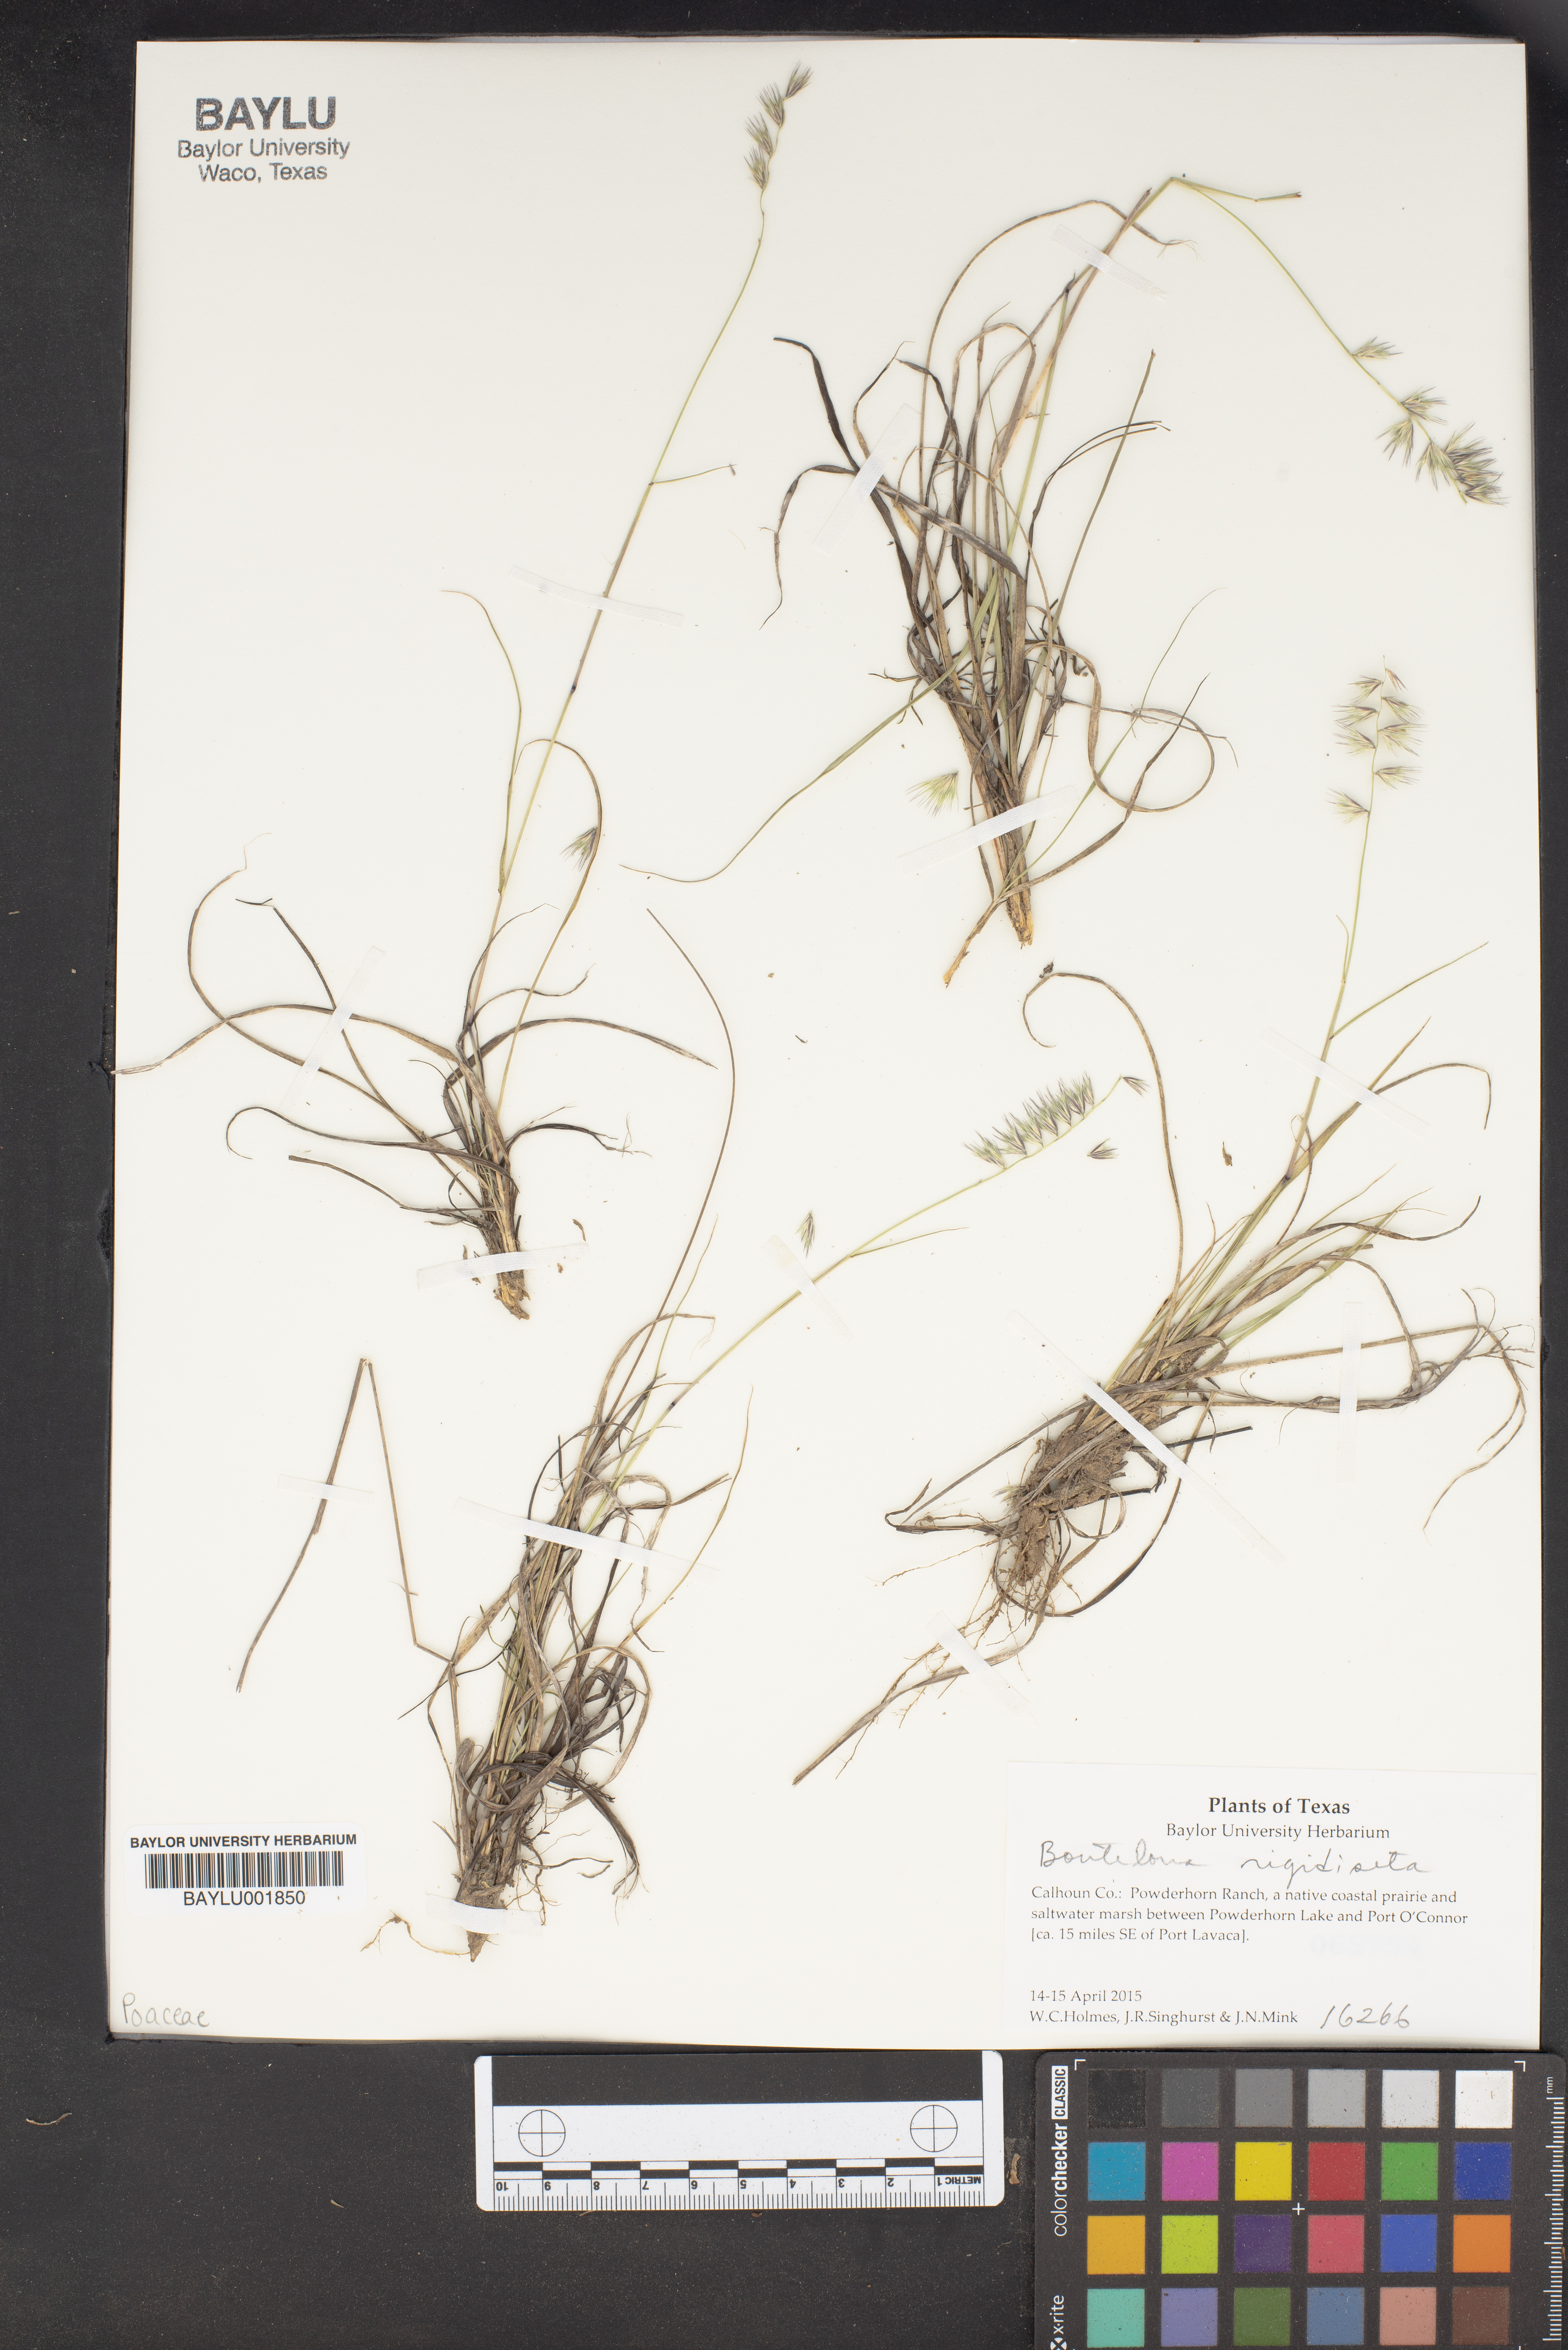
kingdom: Plantae
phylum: Tracheophyta
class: Liliopsida
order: Poales
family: Poaceae
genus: Bouteloua
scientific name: Bouteloua rigidiseta
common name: Texas grama
